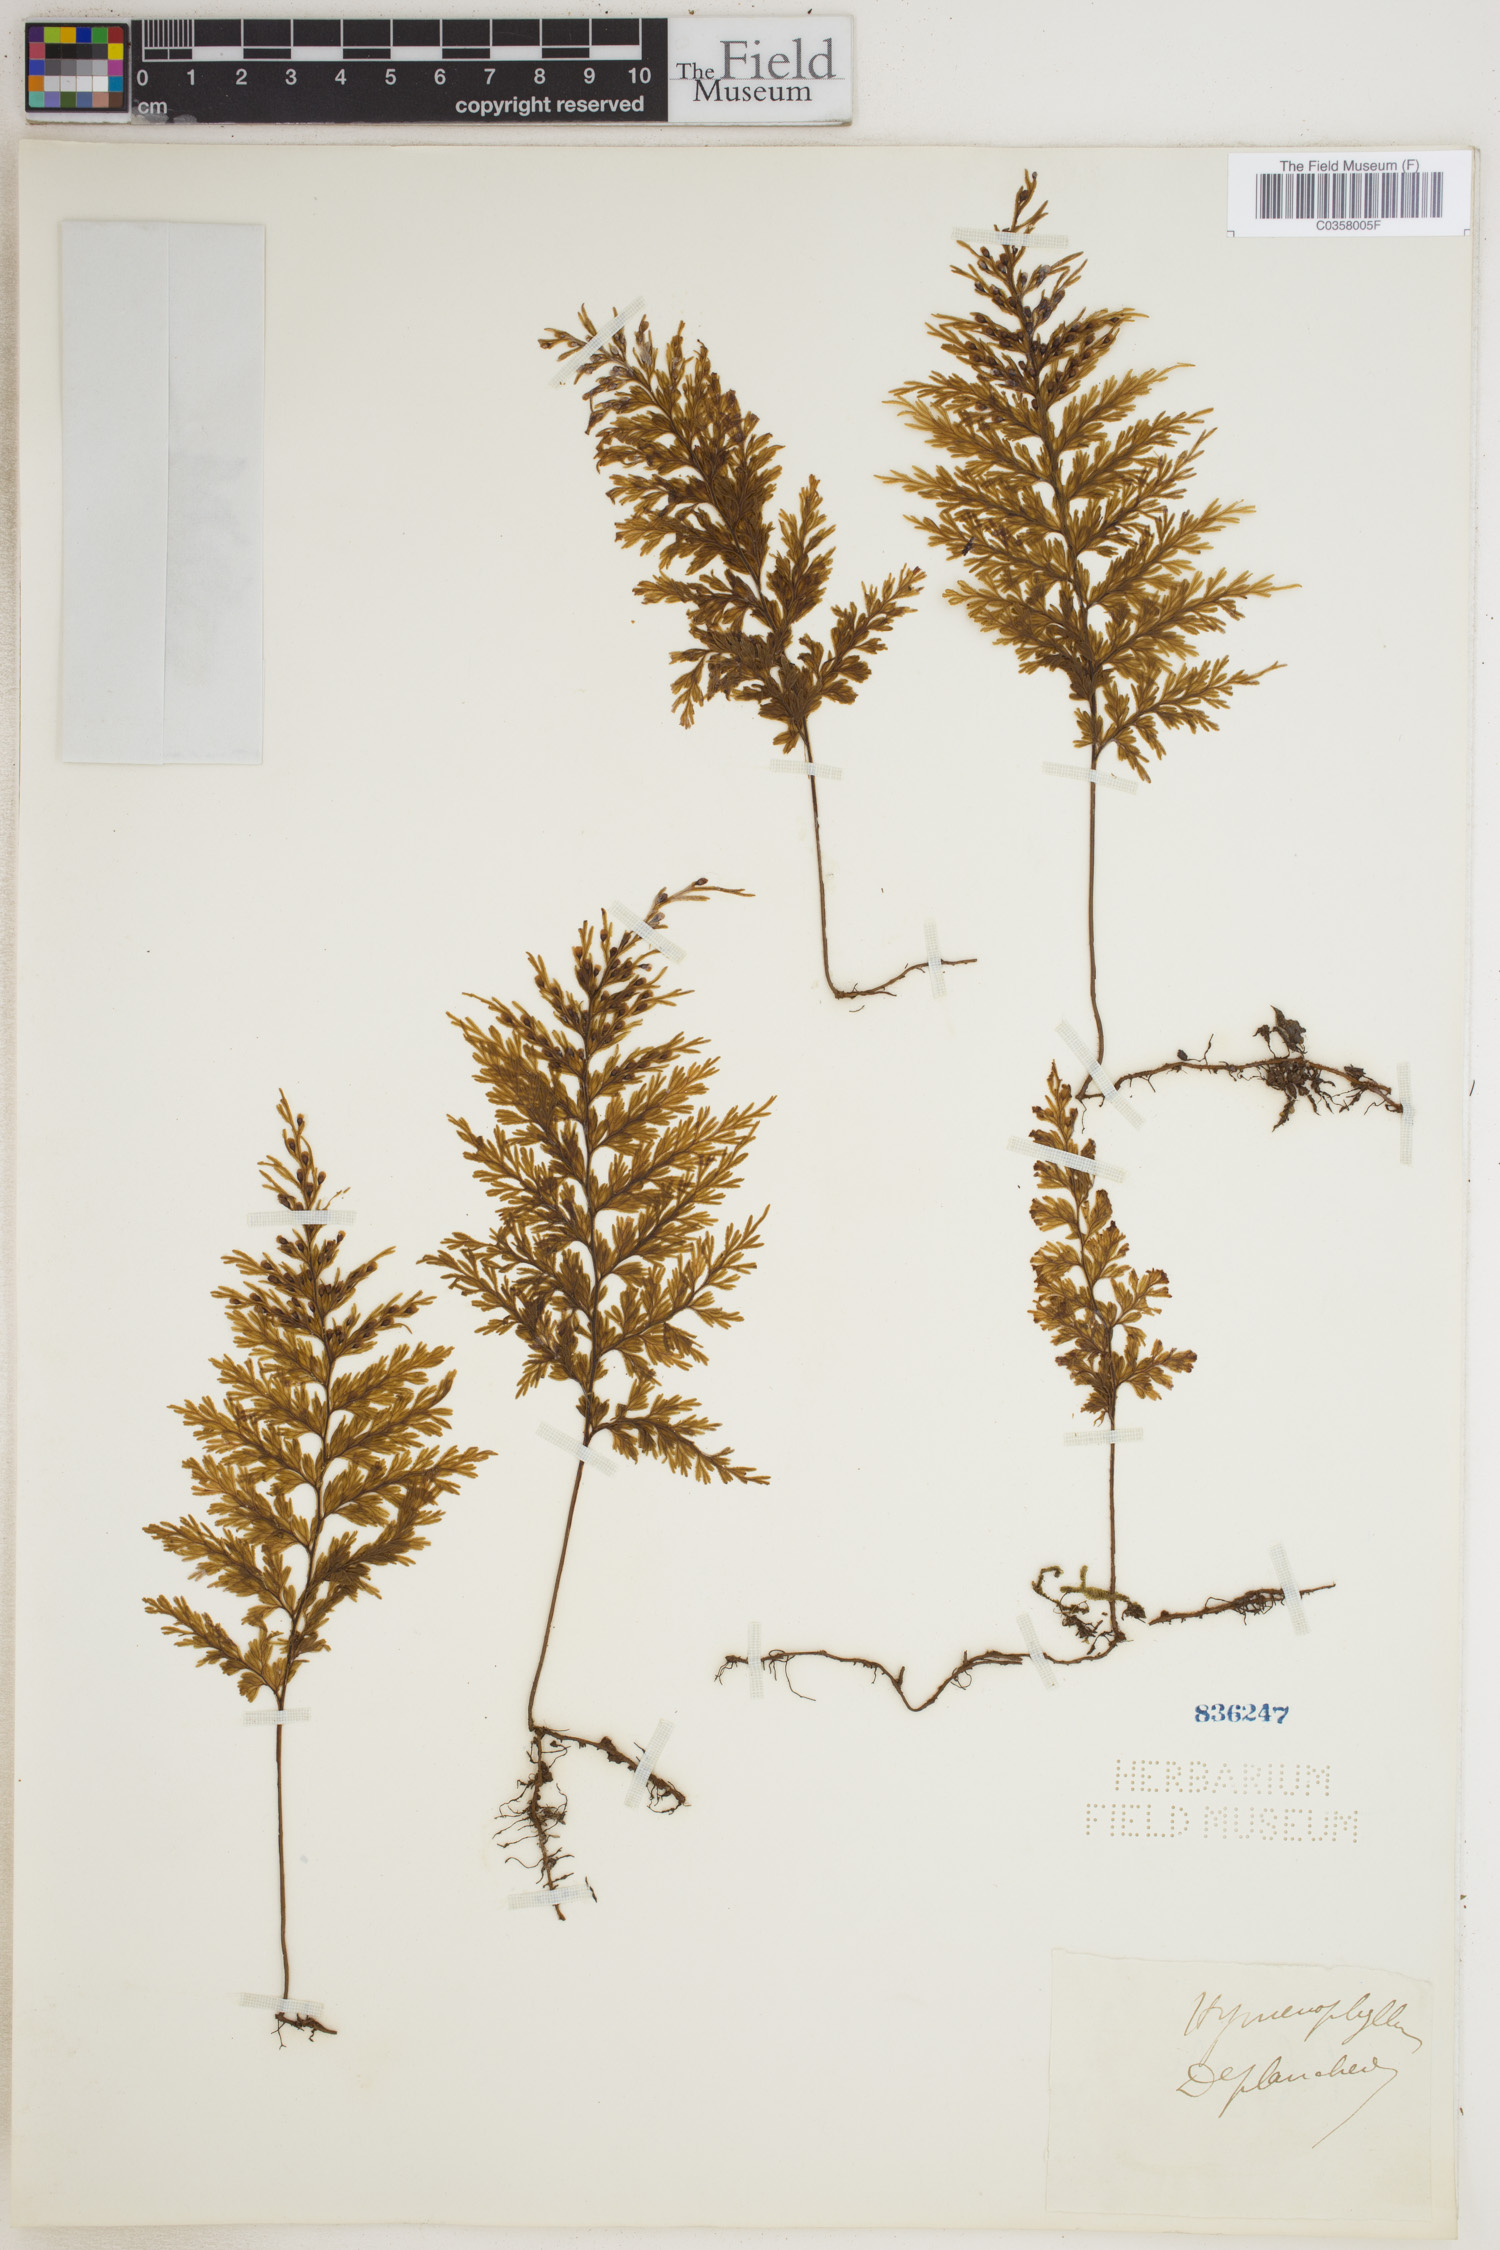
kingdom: Plantae
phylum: Tracheophyta
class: Polypodiopsida
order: Hymenophyllales
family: Hymenophyllaceae
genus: Hymenophyllum
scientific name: Hymenophyllum
